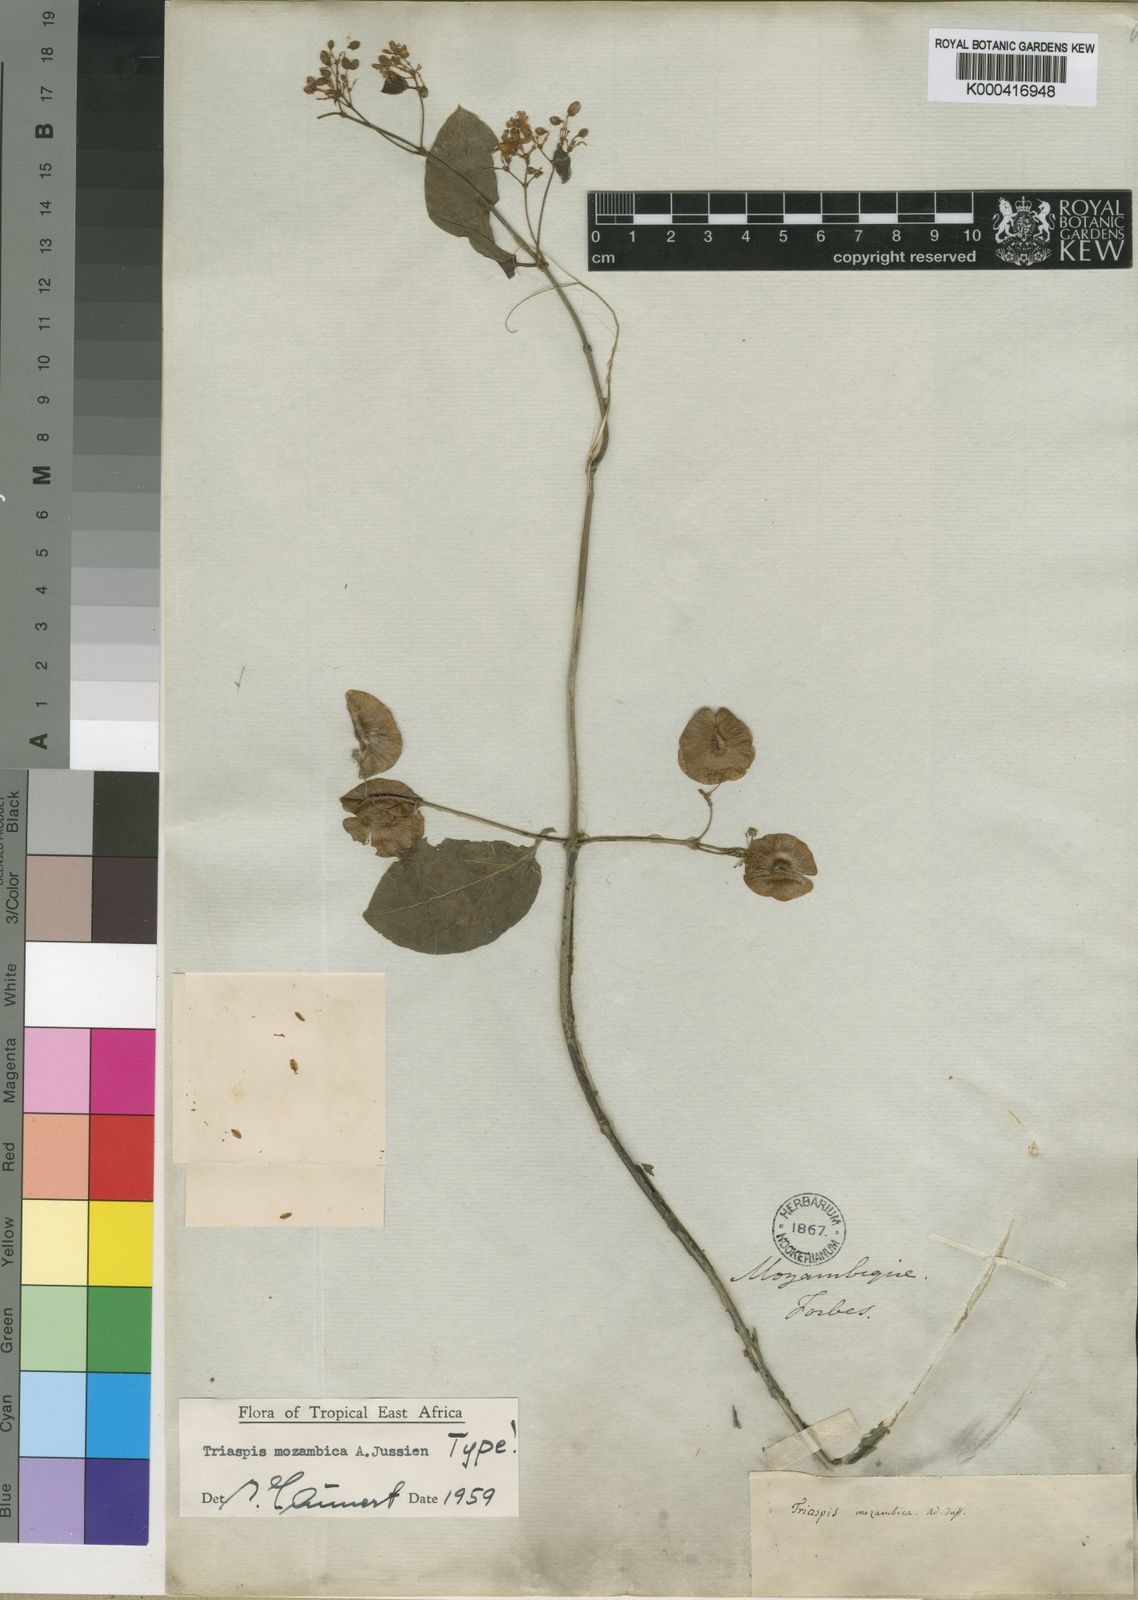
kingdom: Plantae
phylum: Tracheophyta
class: Magnoliopsida
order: Malpighiales
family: Malpighiaceae
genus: Triaspis
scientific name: Triaspis mozambica
